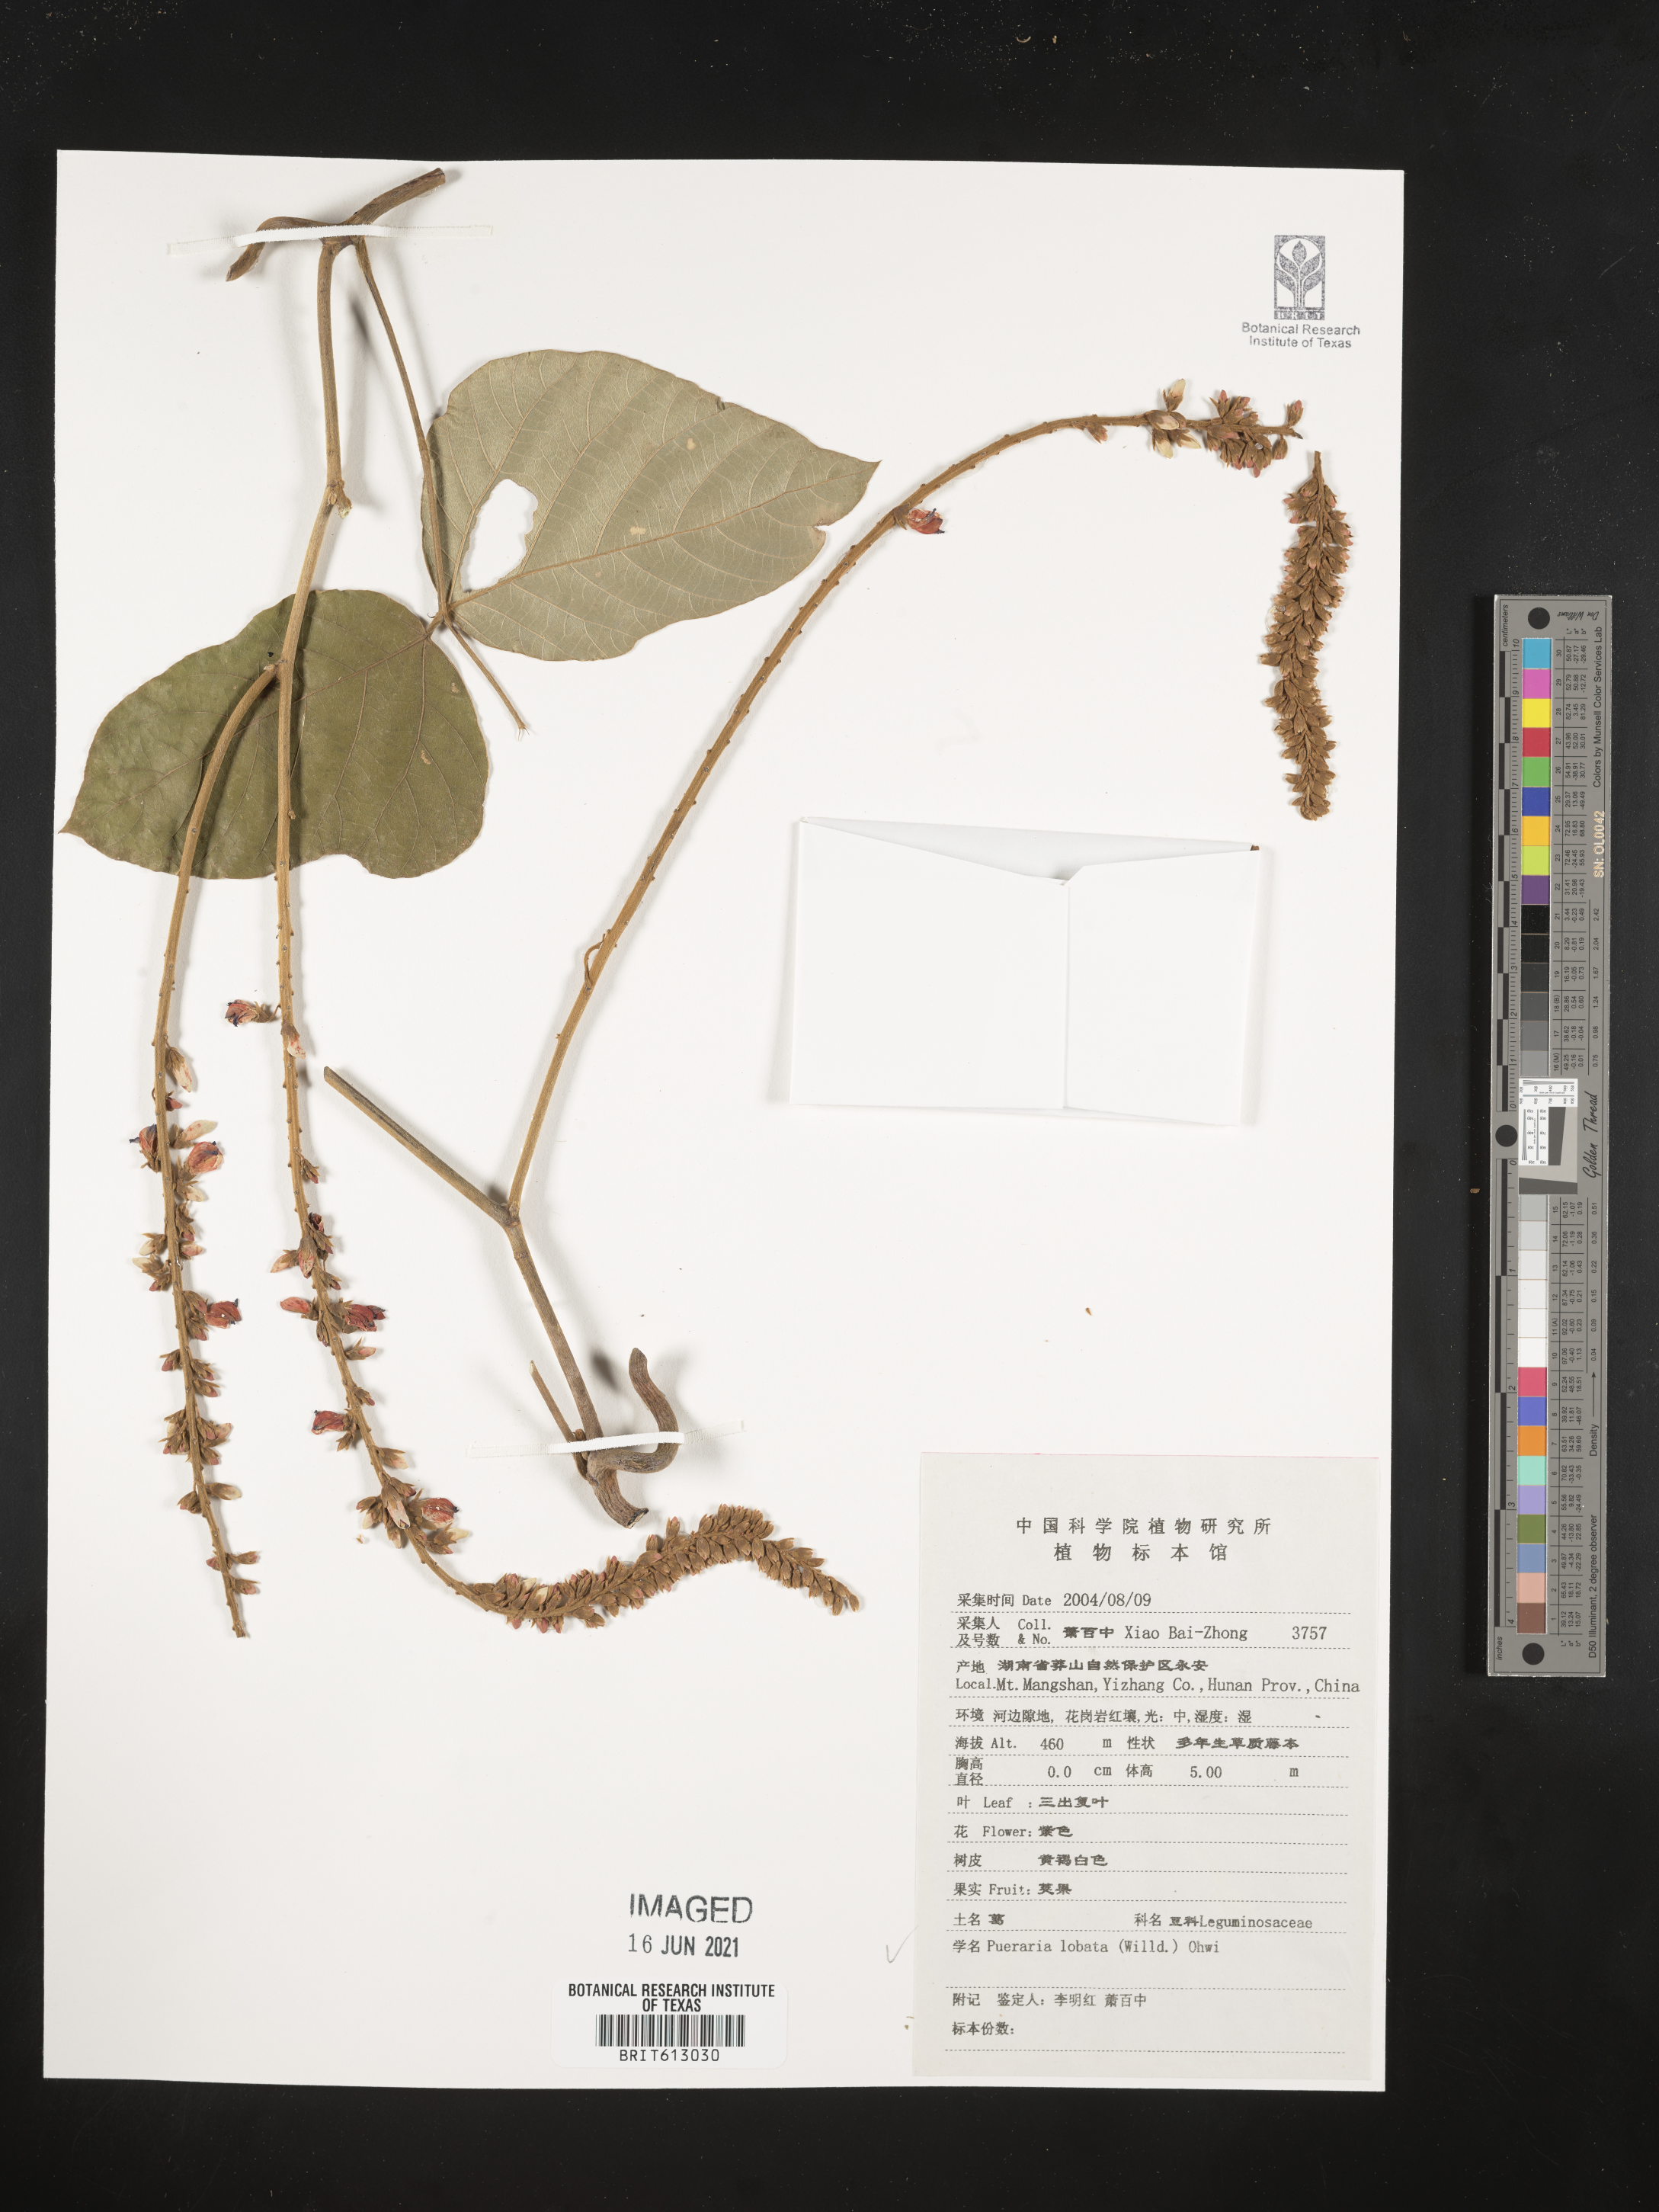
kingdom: Plantae
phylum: Tracheophyta
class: Magnoliopsida
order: Fabales
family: Fabaceae
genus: Pueraria
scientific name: Pueraria montana
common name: Kudzu
